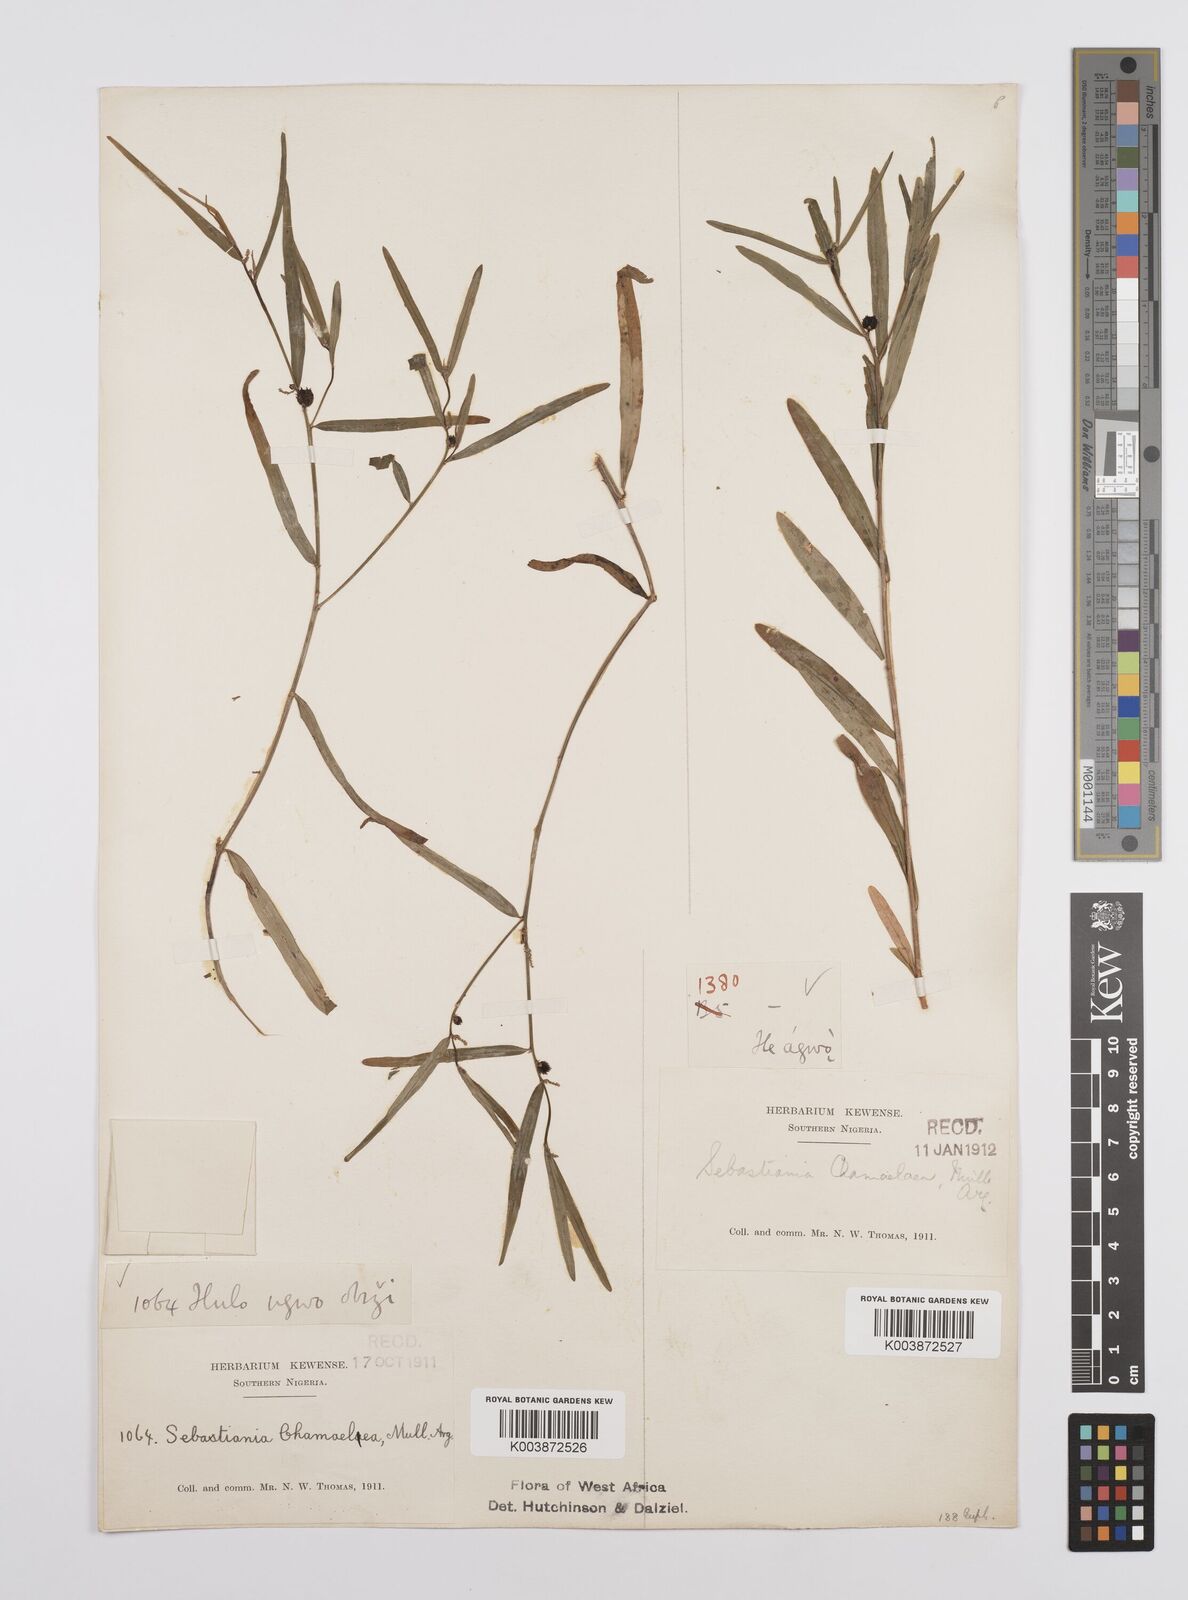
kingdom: Plantae
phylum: Tracheophyta
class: Magnoliopsida
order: Malpighiales
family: Euphorbiaceae
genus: Microstachys
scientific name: Microstachys chamaelea
